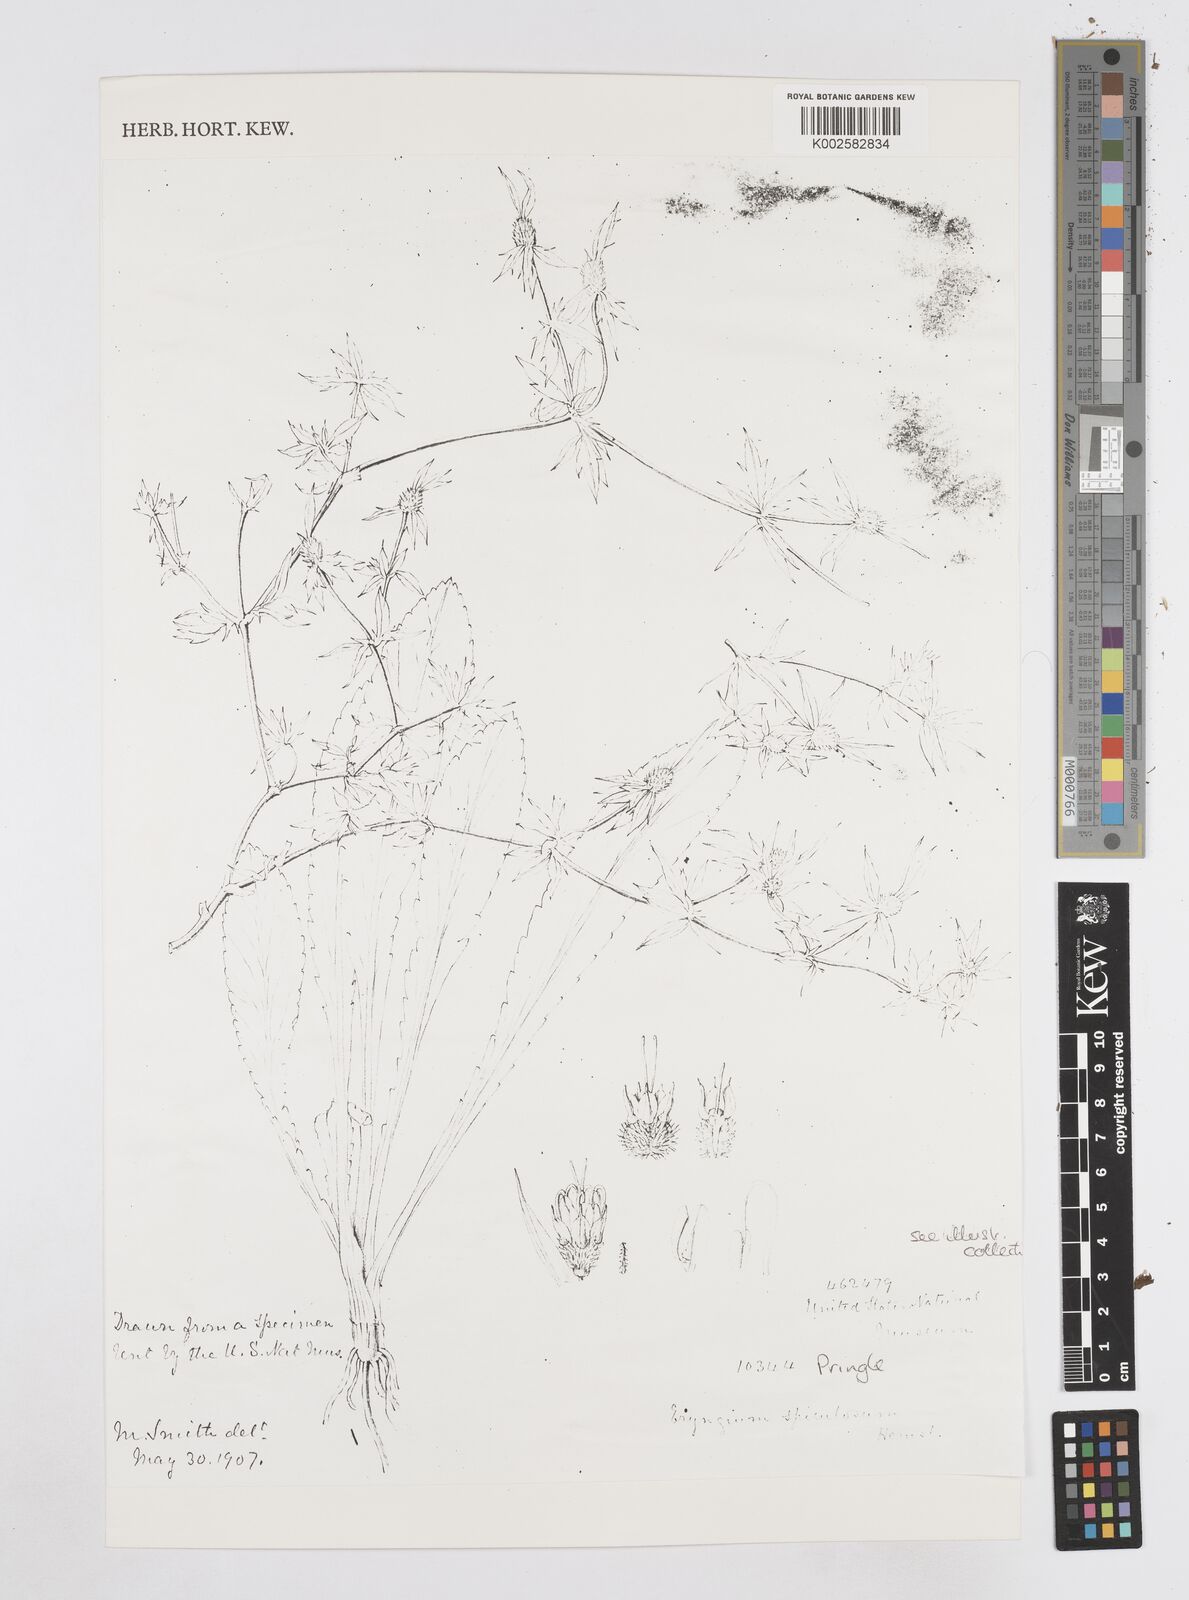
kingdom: Plantae
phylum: Tracheophyta
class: Magnoliopsida
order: Apiales
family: Apiaceae
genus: Eryngium
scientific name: Eryngium haenkei
